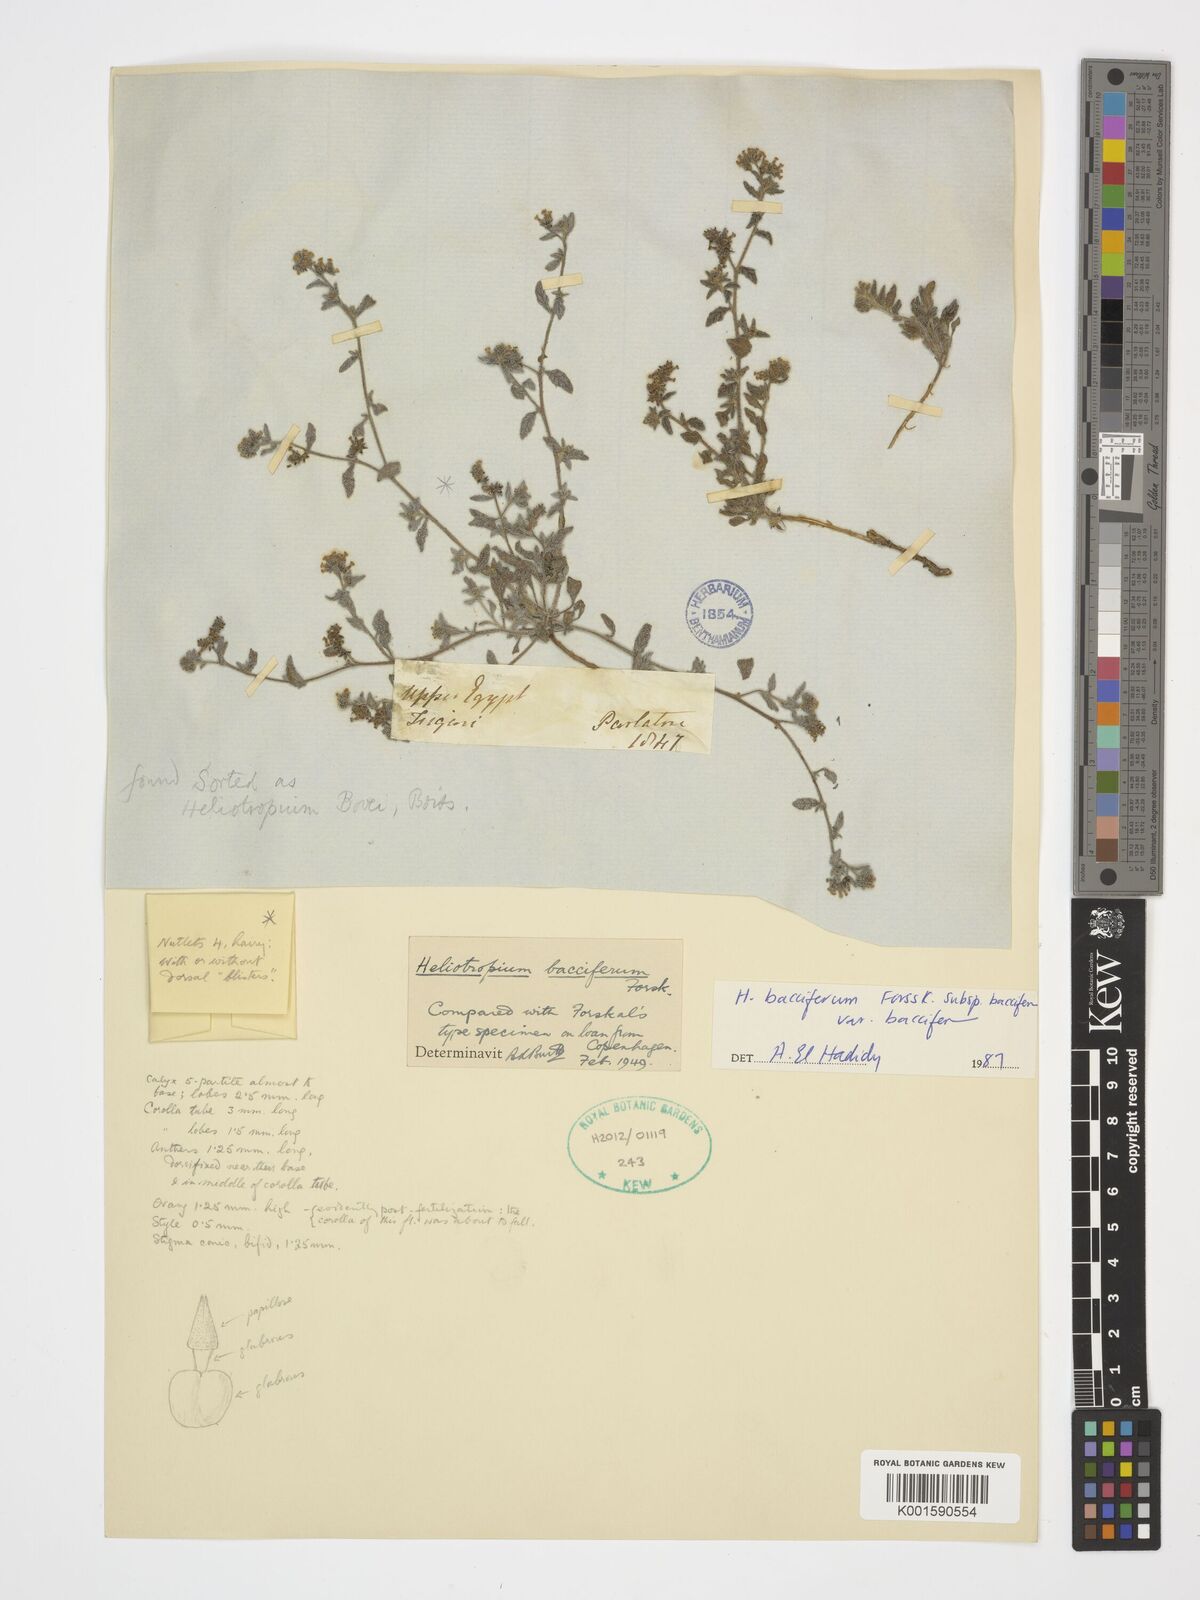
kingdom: Plantae
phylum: Tracheophyta
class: Magnoliopsida
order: Boraginales
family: Heliotropiaceae
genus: Heliotropium
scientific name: Heliotropium bacciferum
